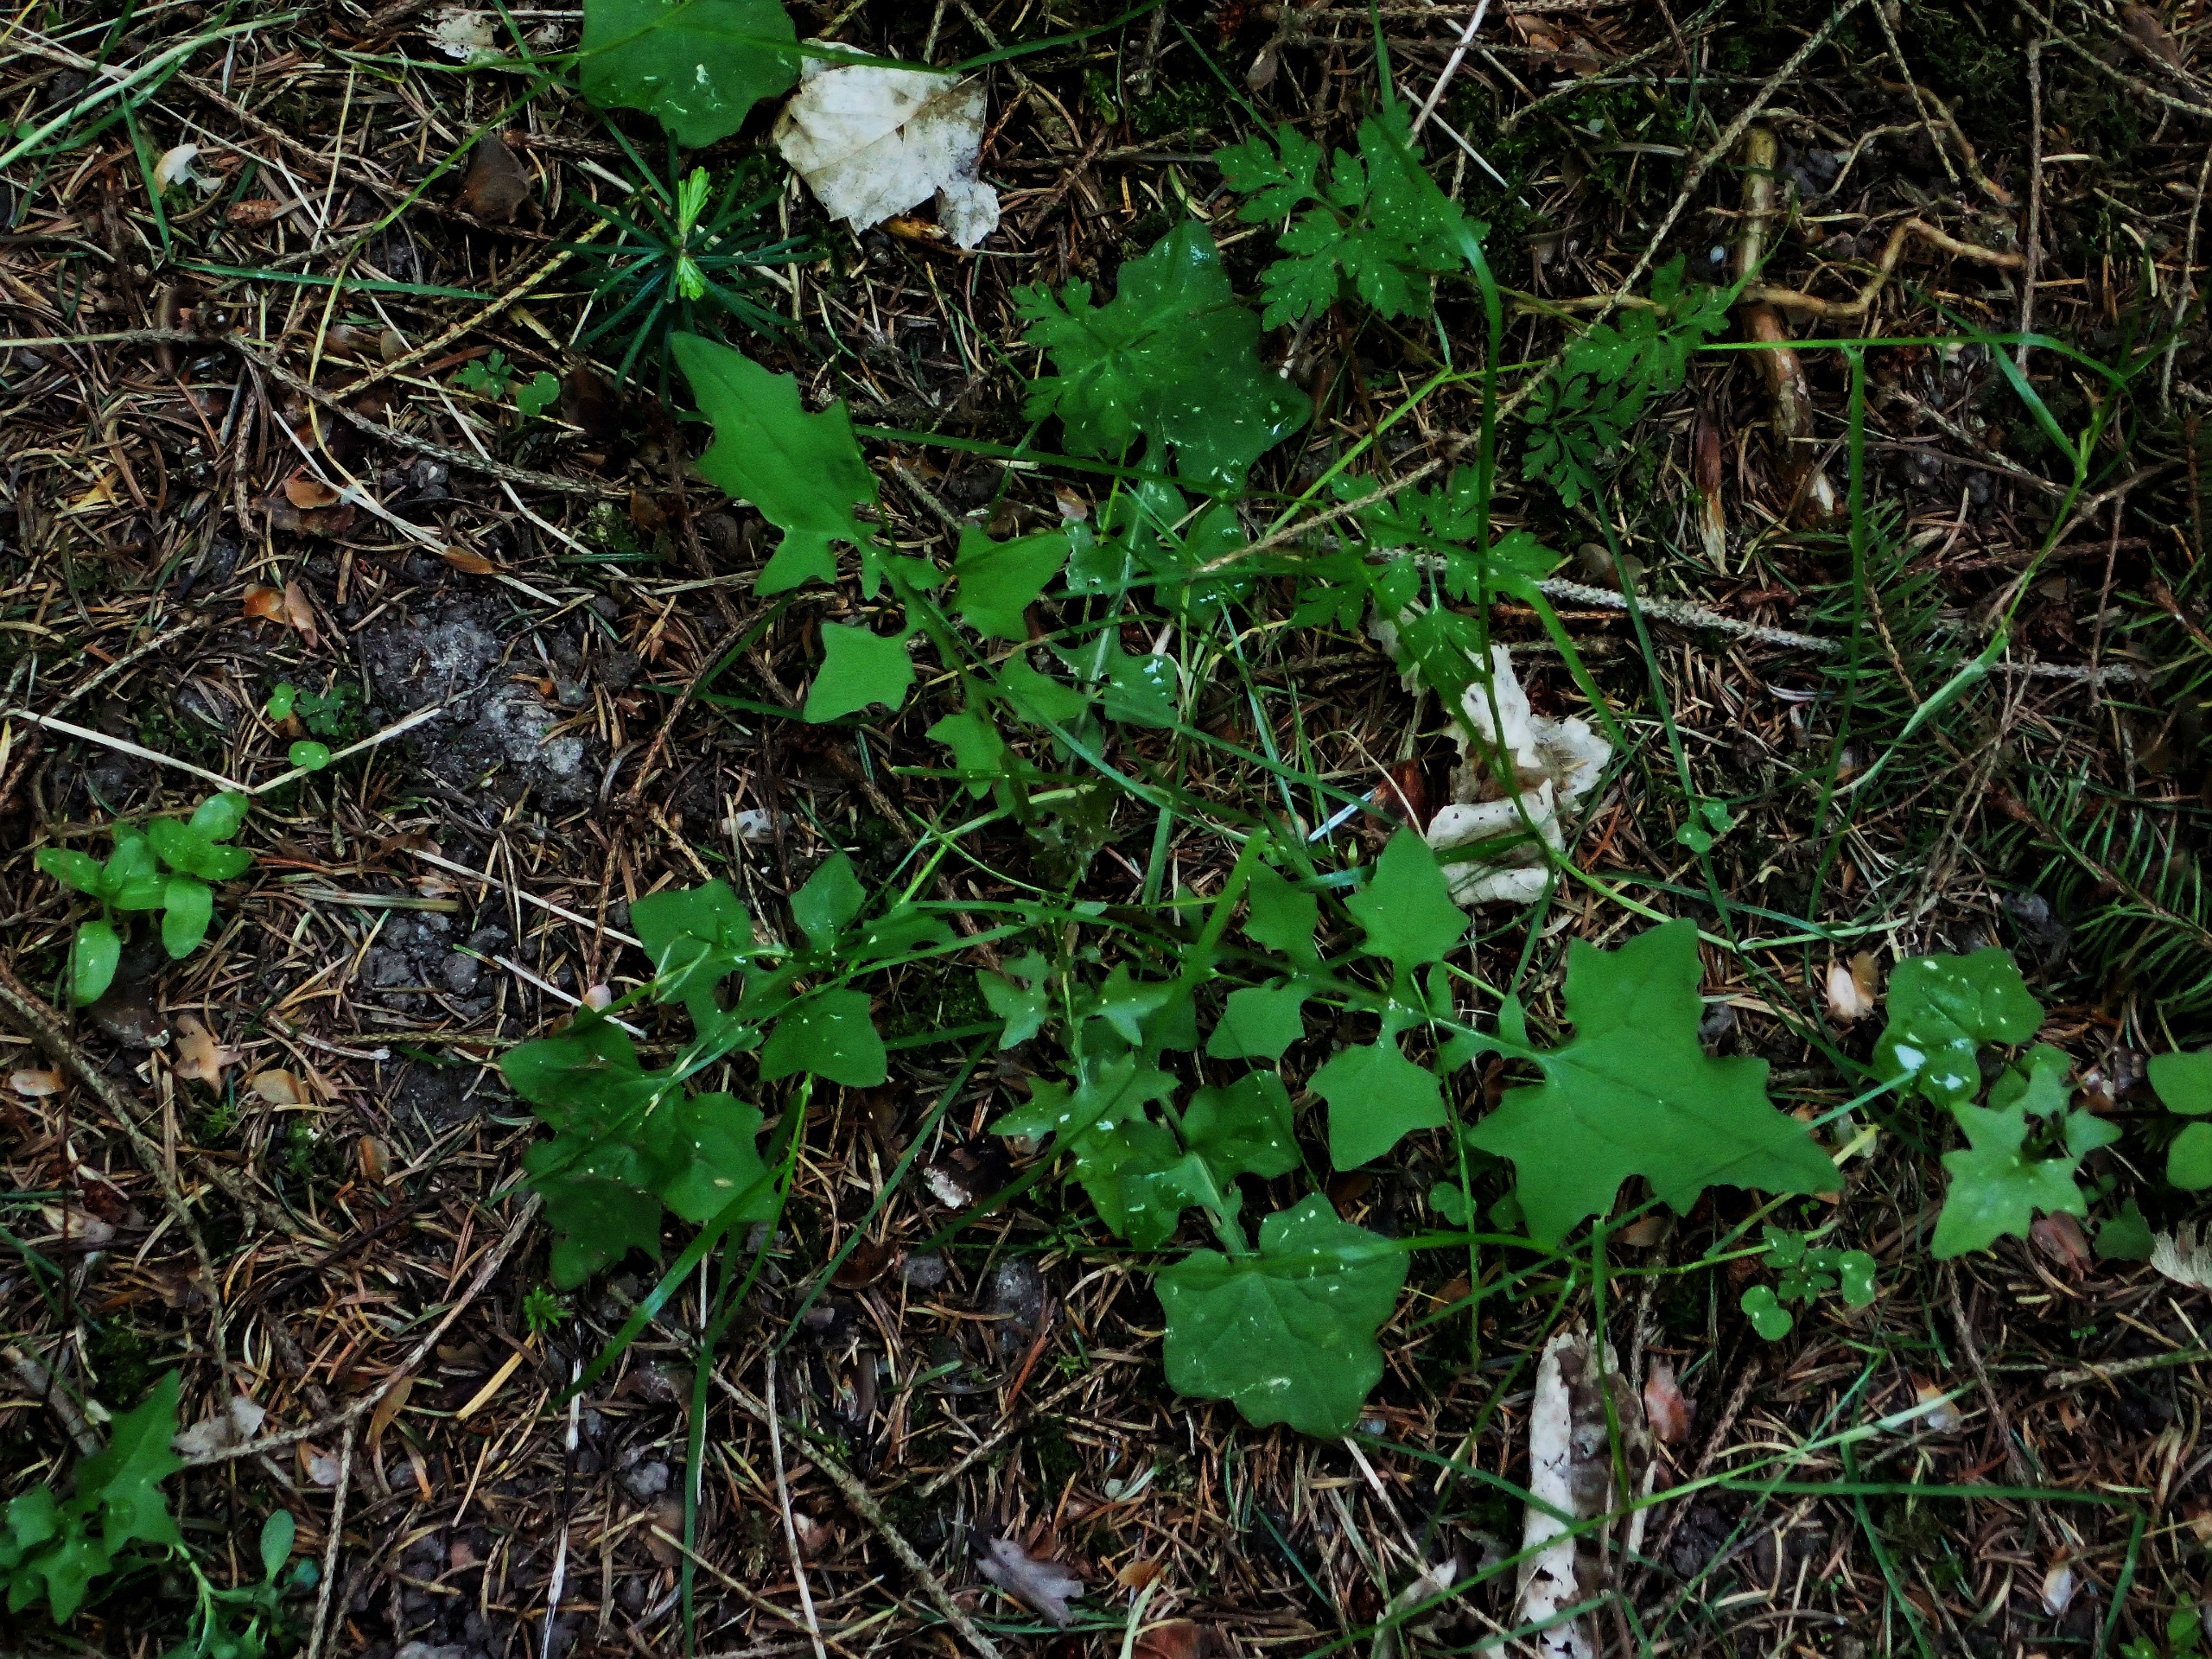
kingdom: Plantae
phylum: Tracheophyta
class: Magnoliopsida
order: Asterales
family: Asteraceae
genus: Mycelis
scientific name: Mycelis muralis
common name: Skov-salat
